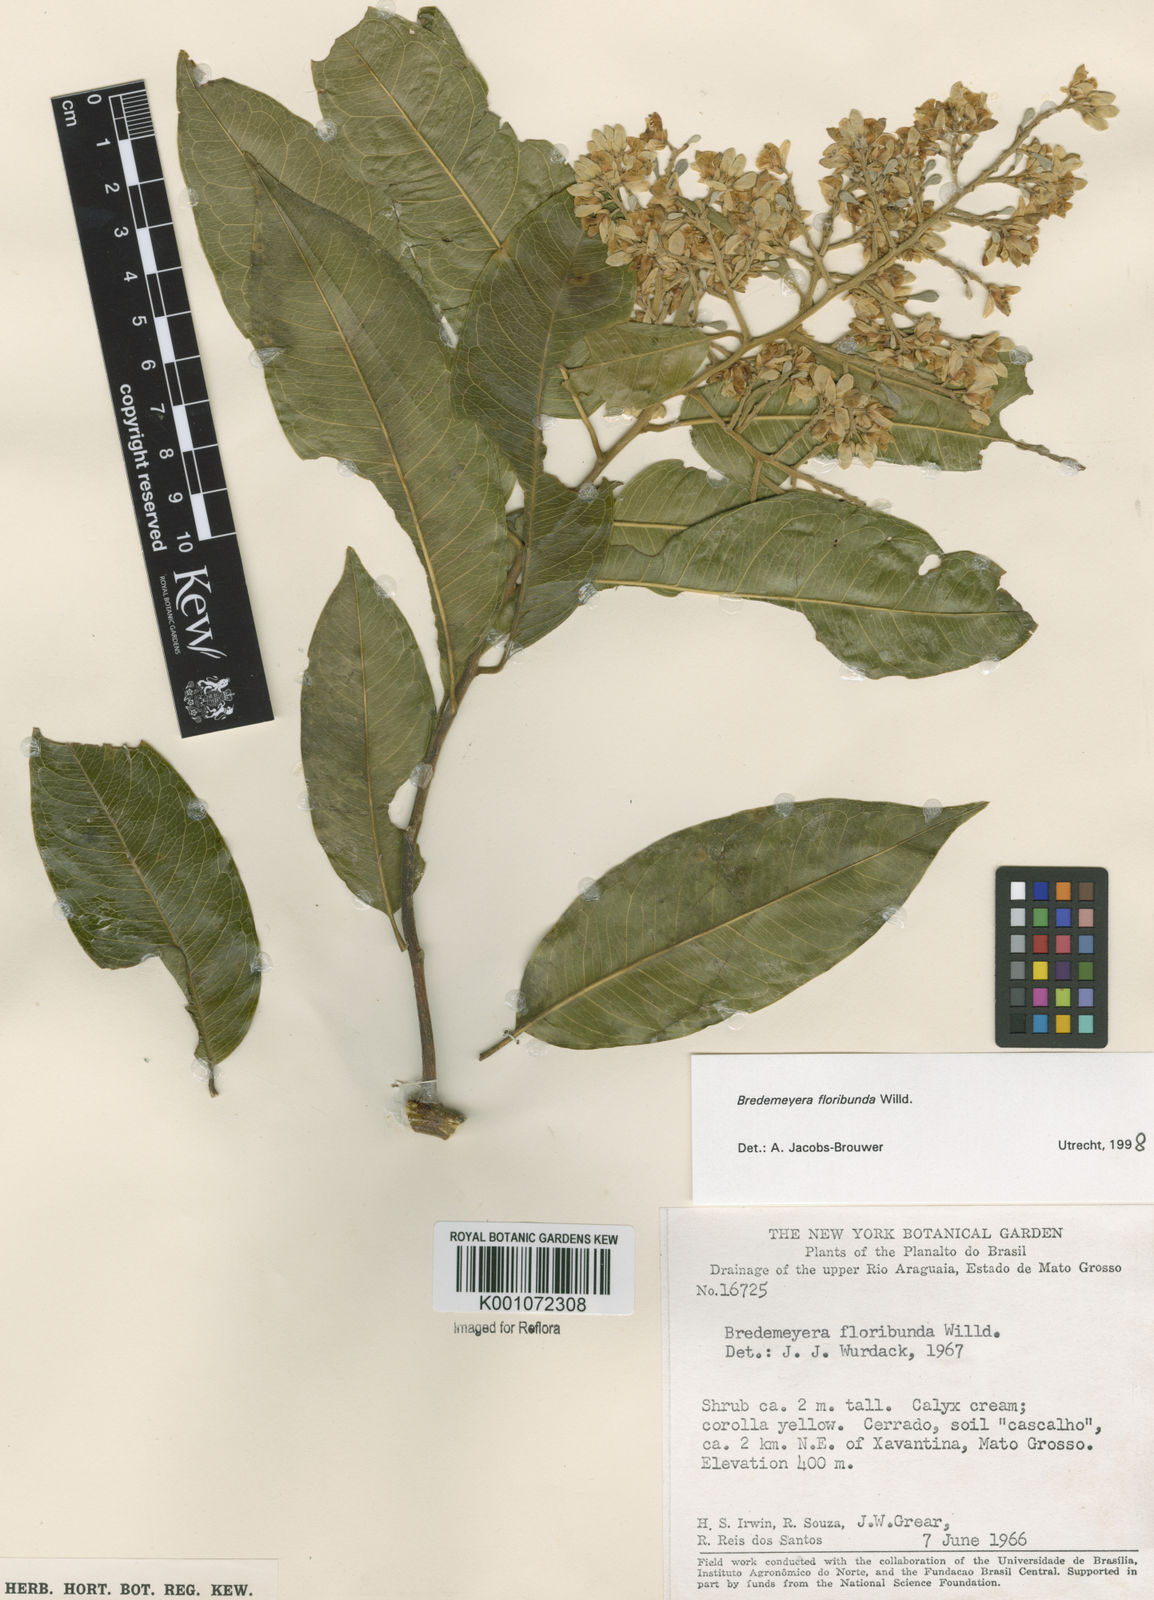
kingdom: Plantae
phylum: Tracheophyta
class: Magnoliopsida
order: Fabales
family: Polygalaceae
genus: Bredemeyera
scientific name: Bredemeyera floribunda
